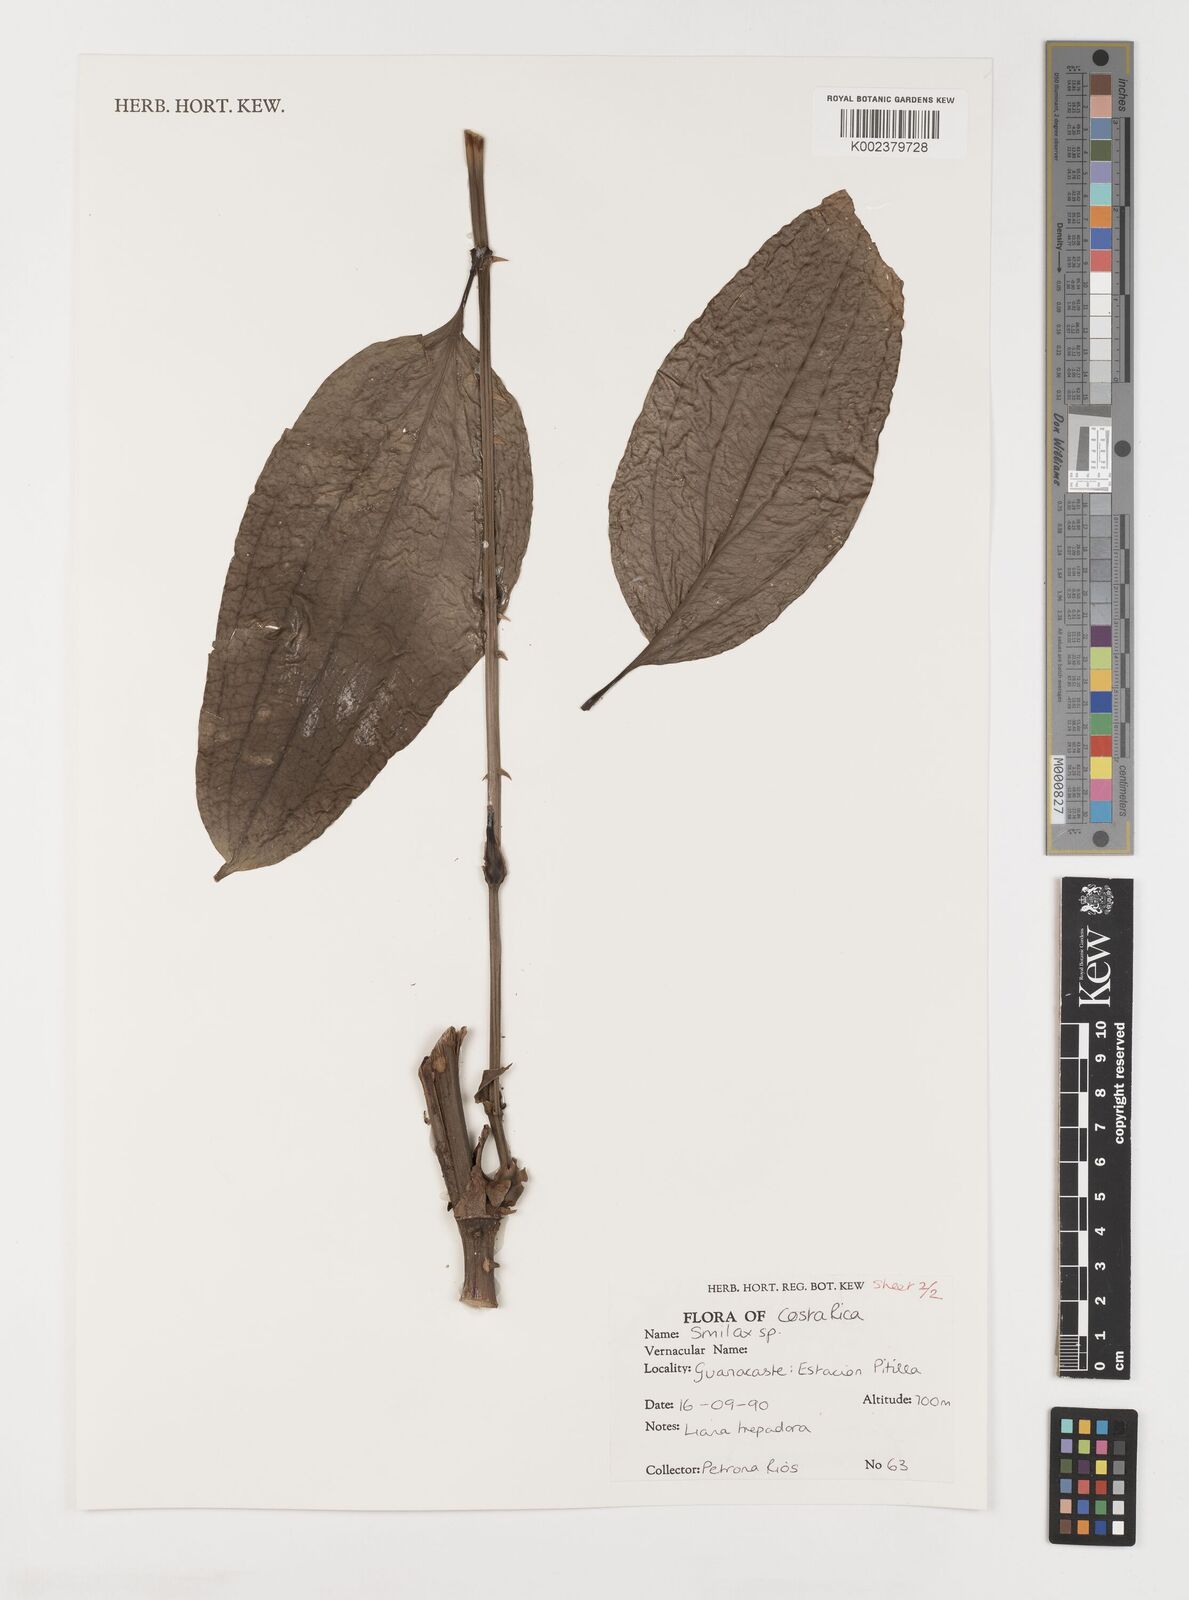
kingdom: Plantae
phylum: Tracheophyta
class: Liliopsida
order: Liliales
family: Smilacaceae
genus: Smilax
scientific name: Smilax
